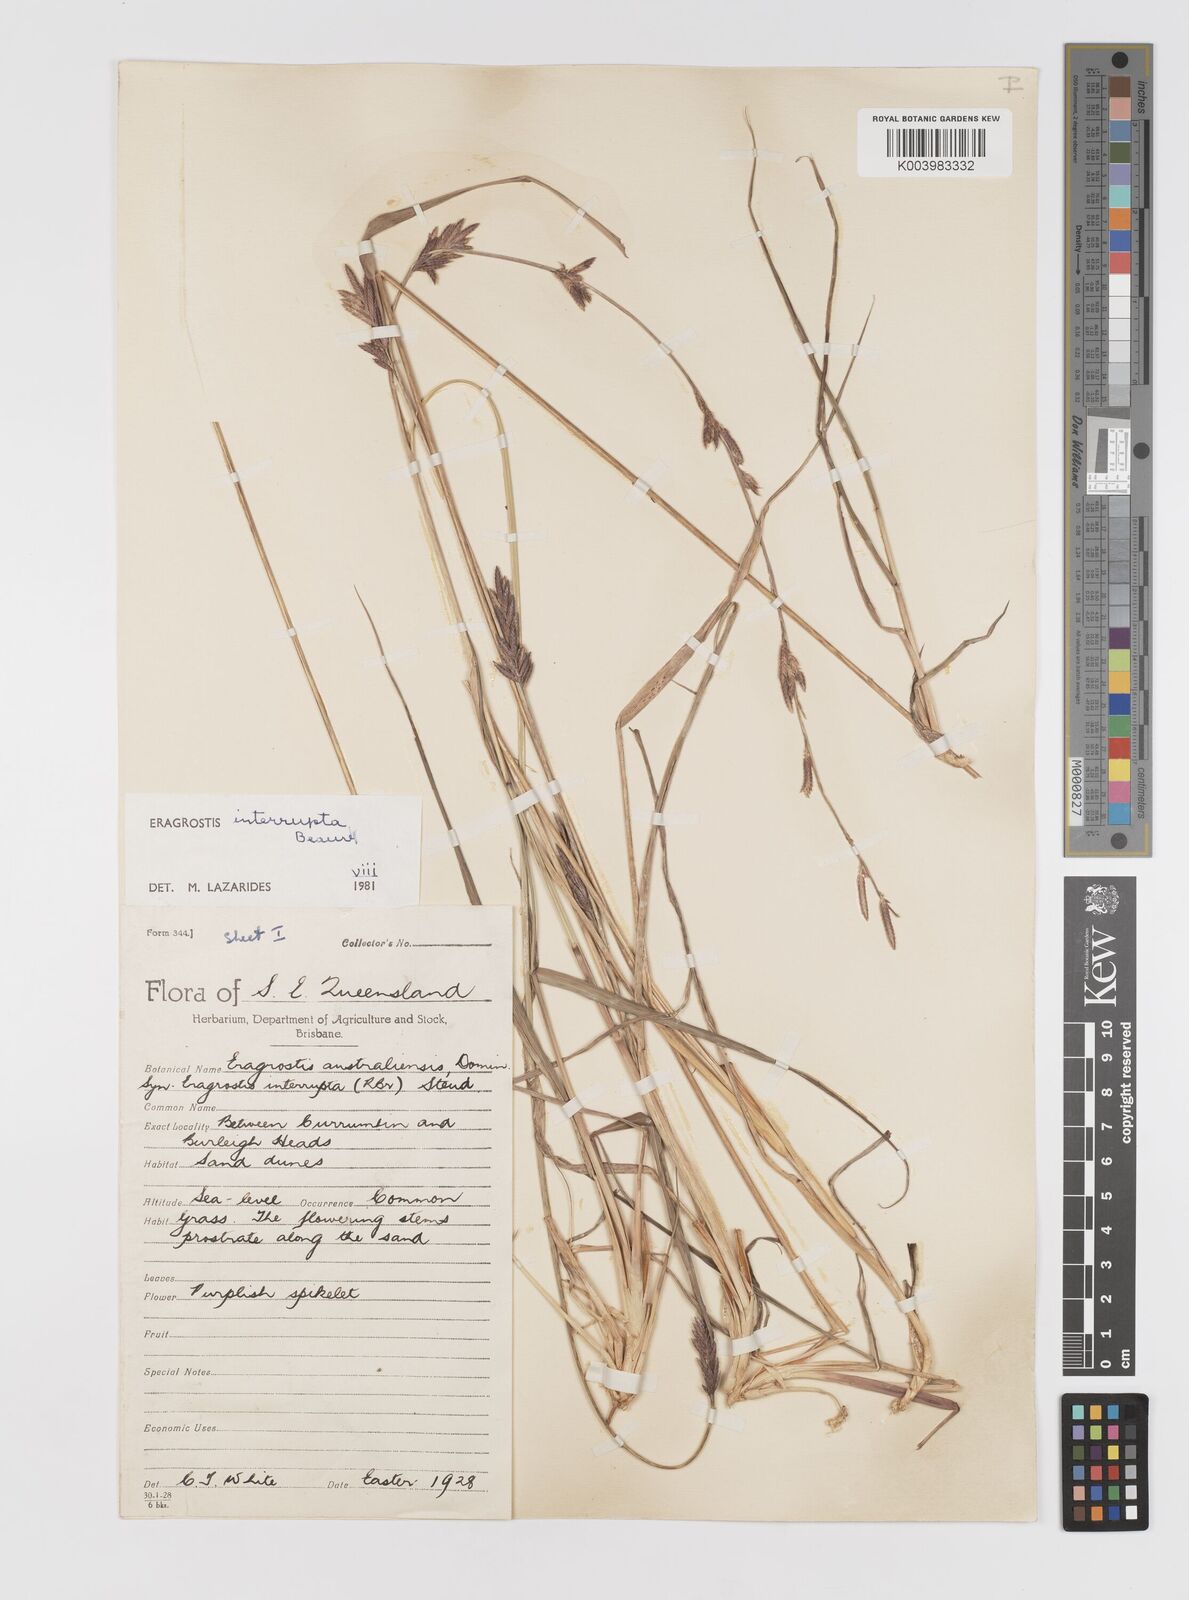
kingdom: Plantae
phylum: Tracheophyta
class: Liliopsida
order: Poales
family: Poaceae
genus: Eragrostis
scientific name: Eragrostis interrupta
